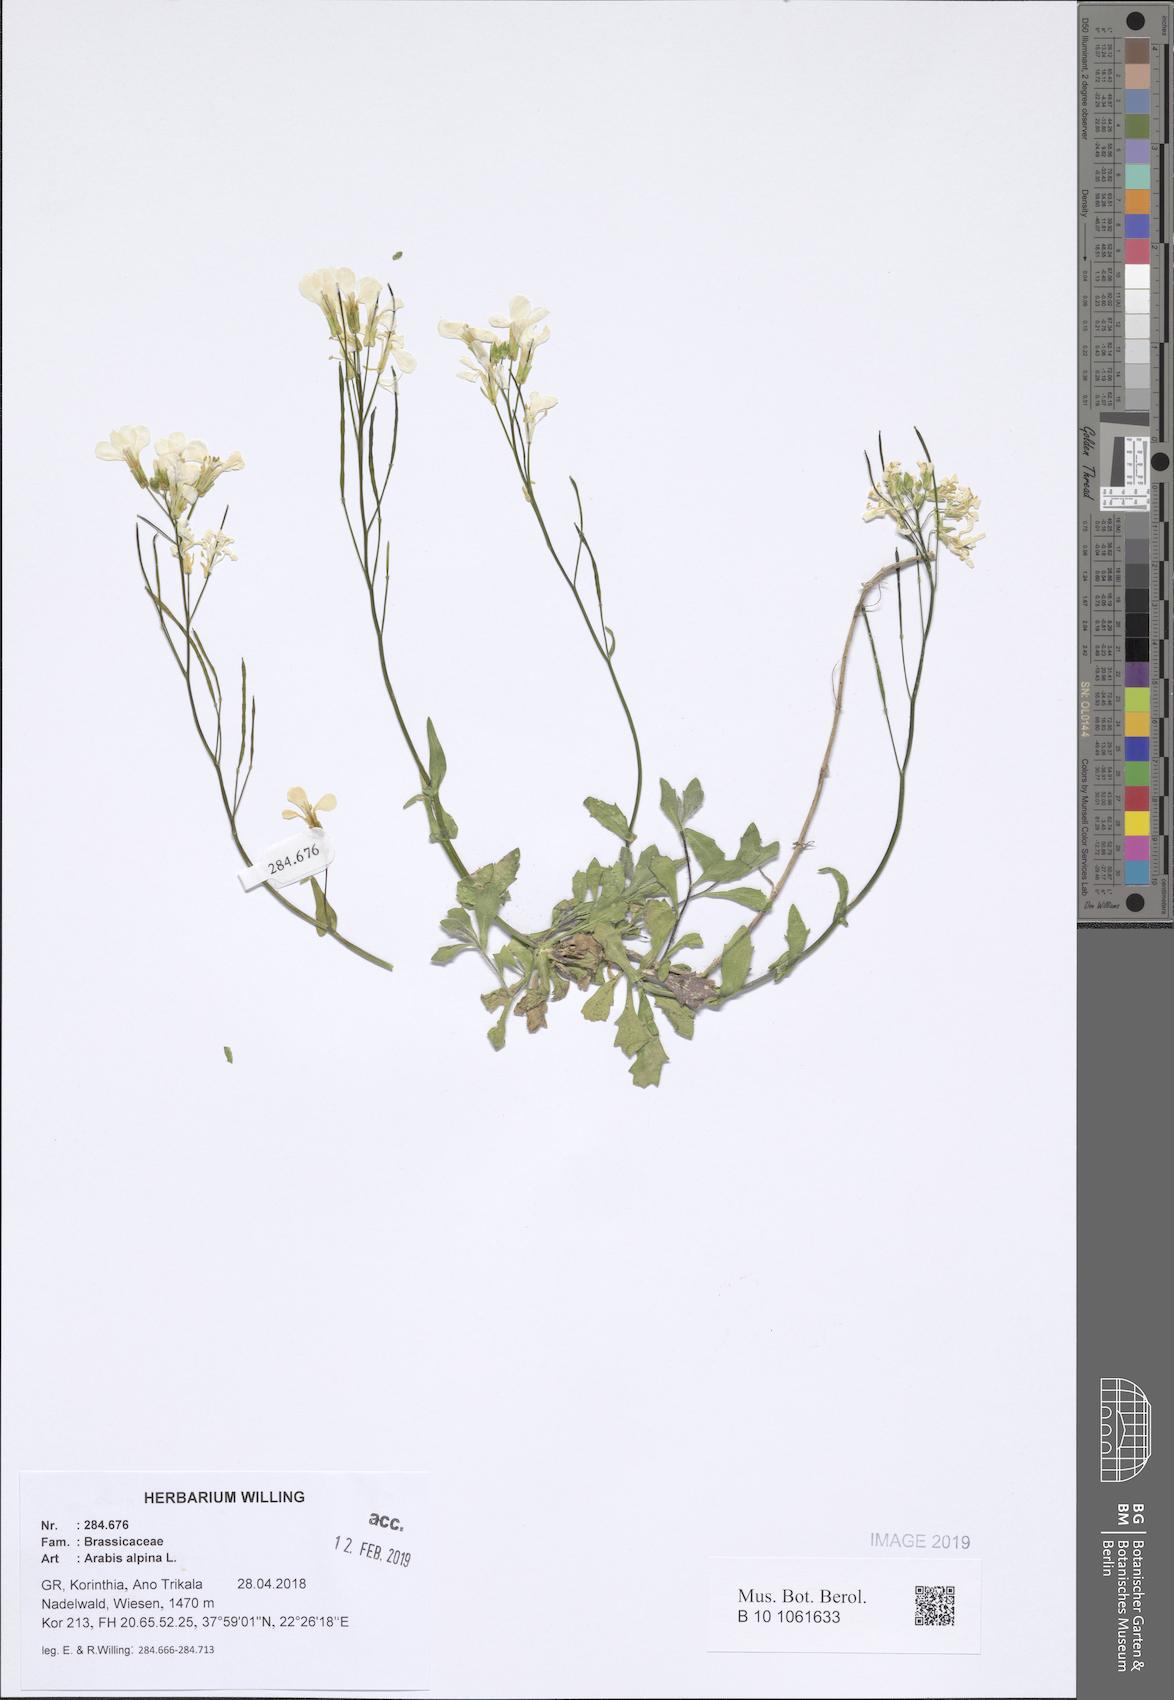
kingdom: Plantae
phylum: Tracheophyta
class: Magnoliopsida
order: Brassicales
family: Brassicaceae
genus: Arabis
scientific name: Arabis alpina
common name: Alpine rock-cress
